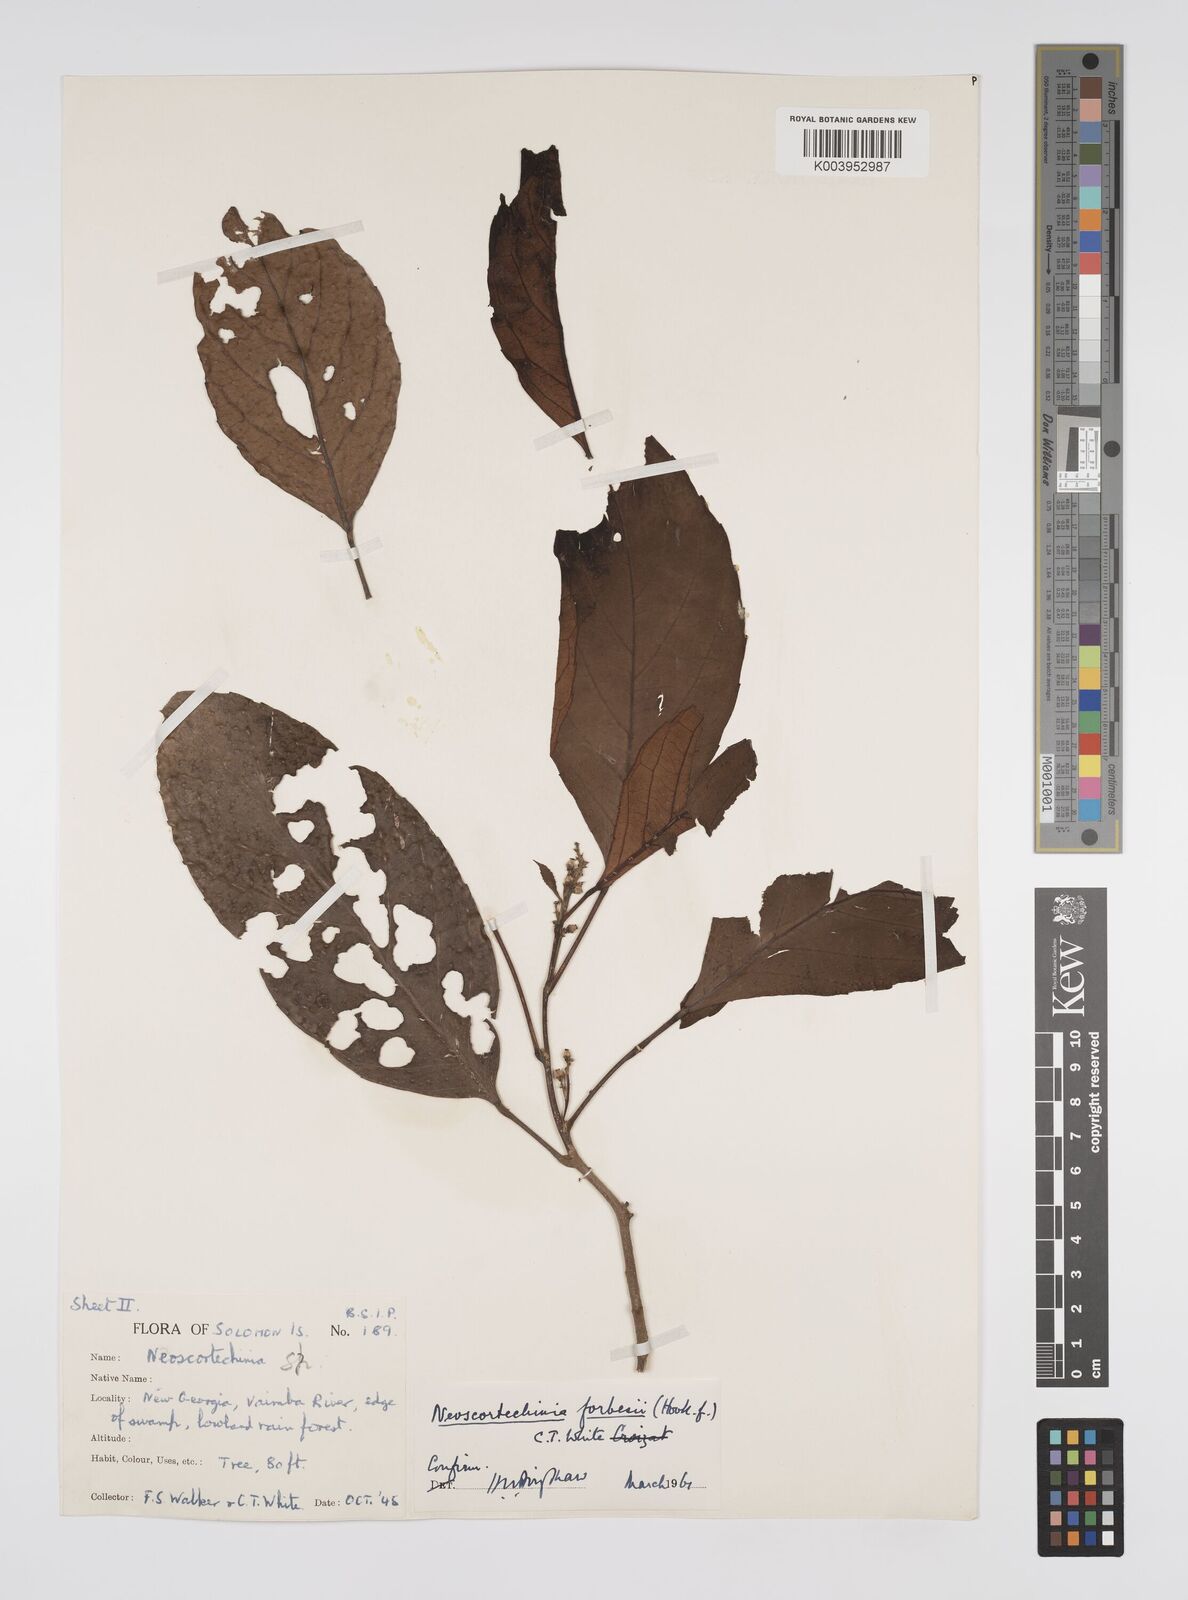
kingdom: Plantae
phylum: Tracheophyta
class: Magnoliopsida
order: Malpighiales
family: Euphorbiaceae
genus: Neoscortechinia
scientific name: Neoscortechinia forbesii
